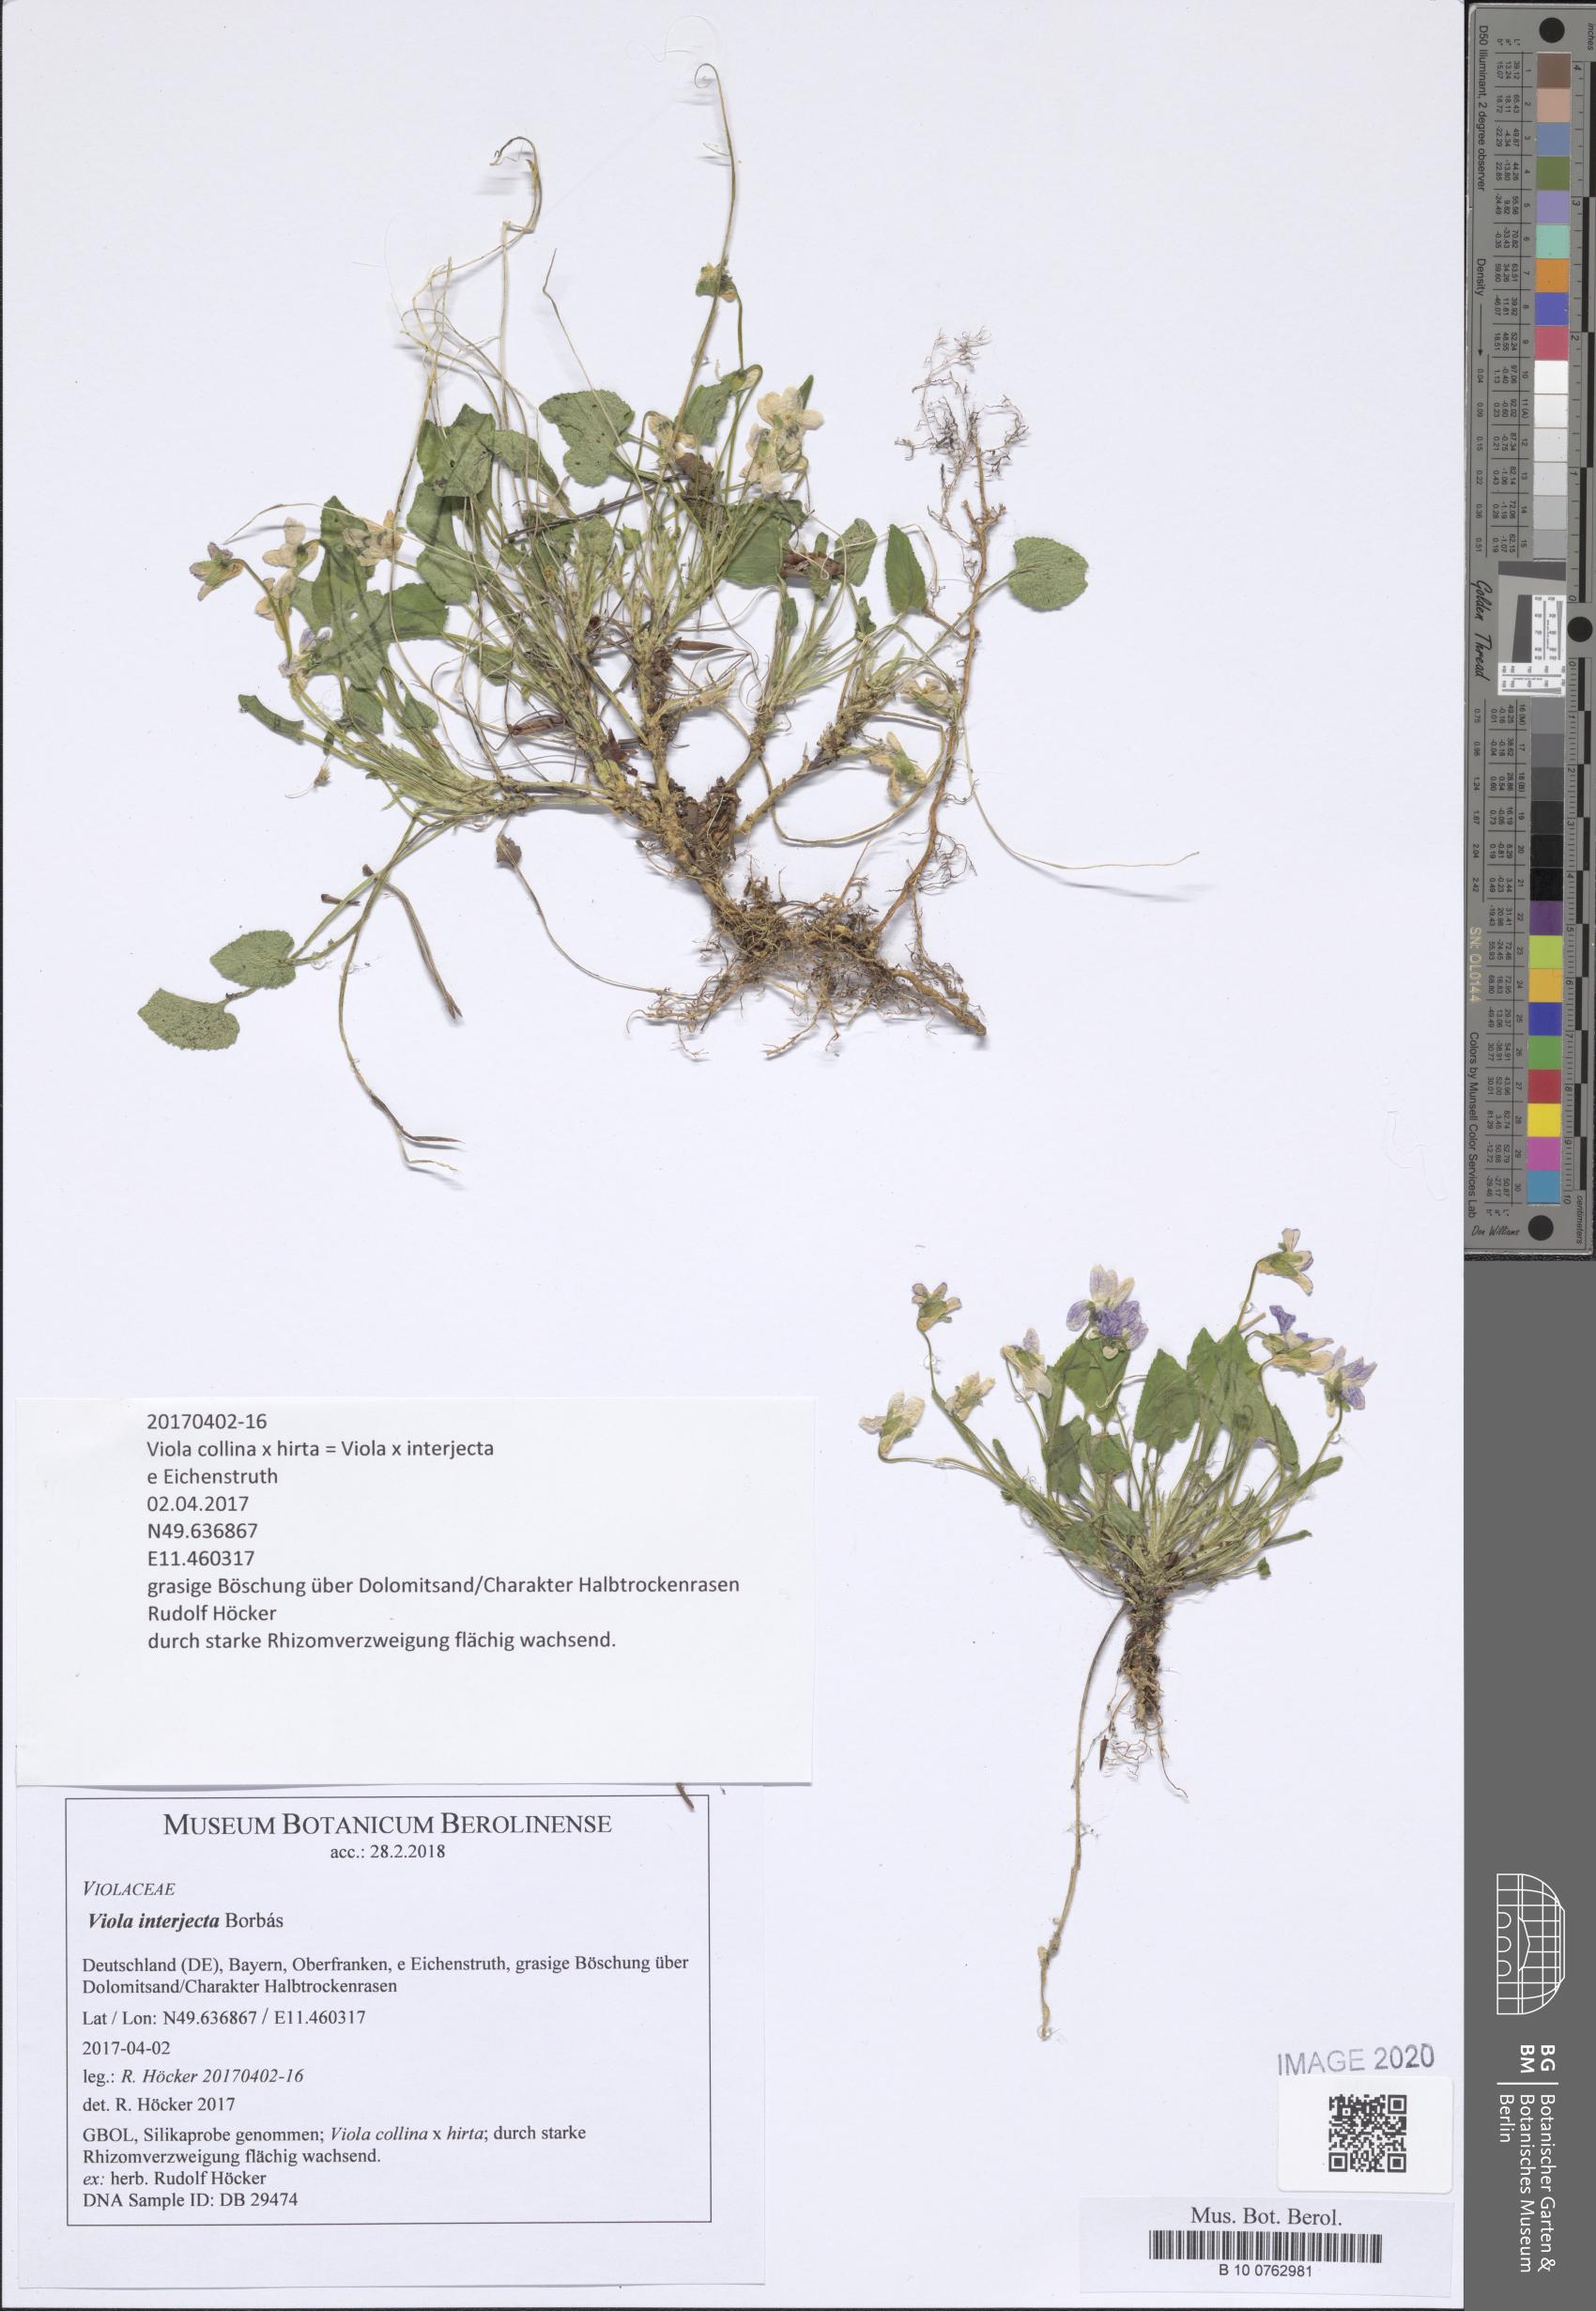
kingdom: Plantae
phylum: Tracheophyta
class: Magnoliopsida
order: Malpighiales
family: Violaceae
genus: Viola
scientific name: Viola interjecta
